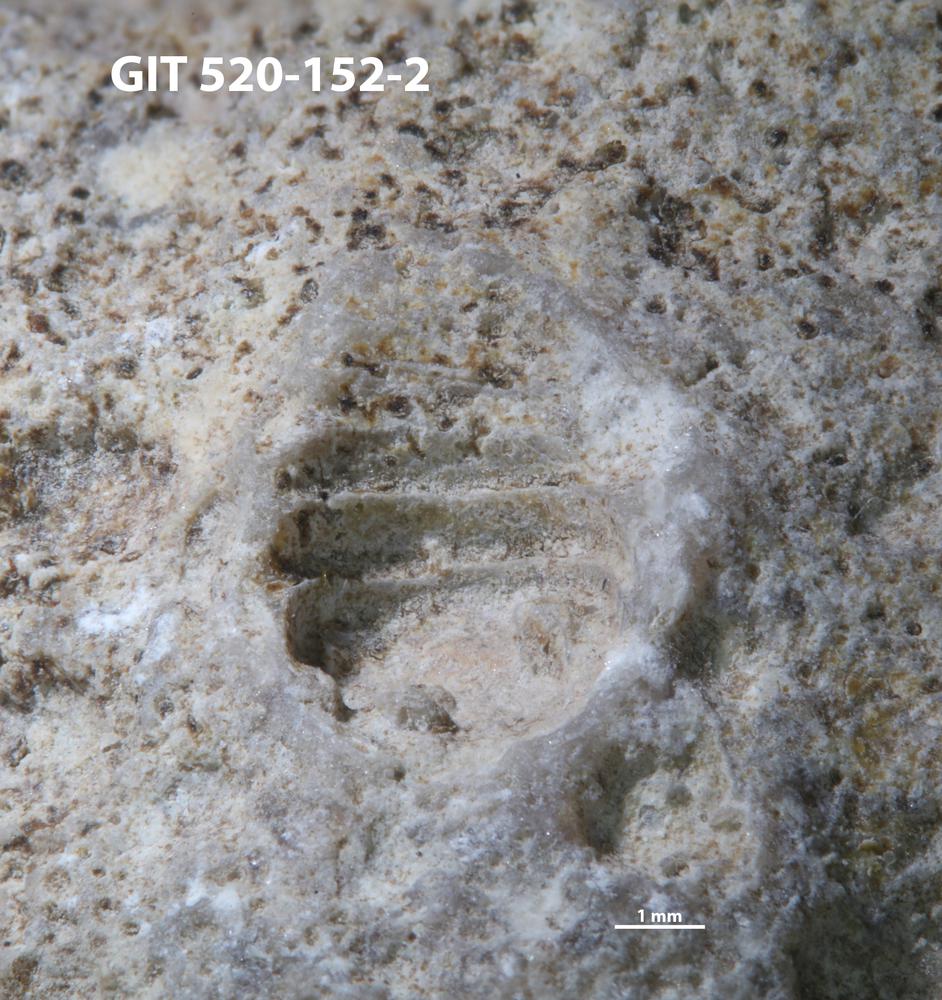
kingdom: Animalia
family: Cornulitidae
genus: Cornulites
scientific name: Cornulites
